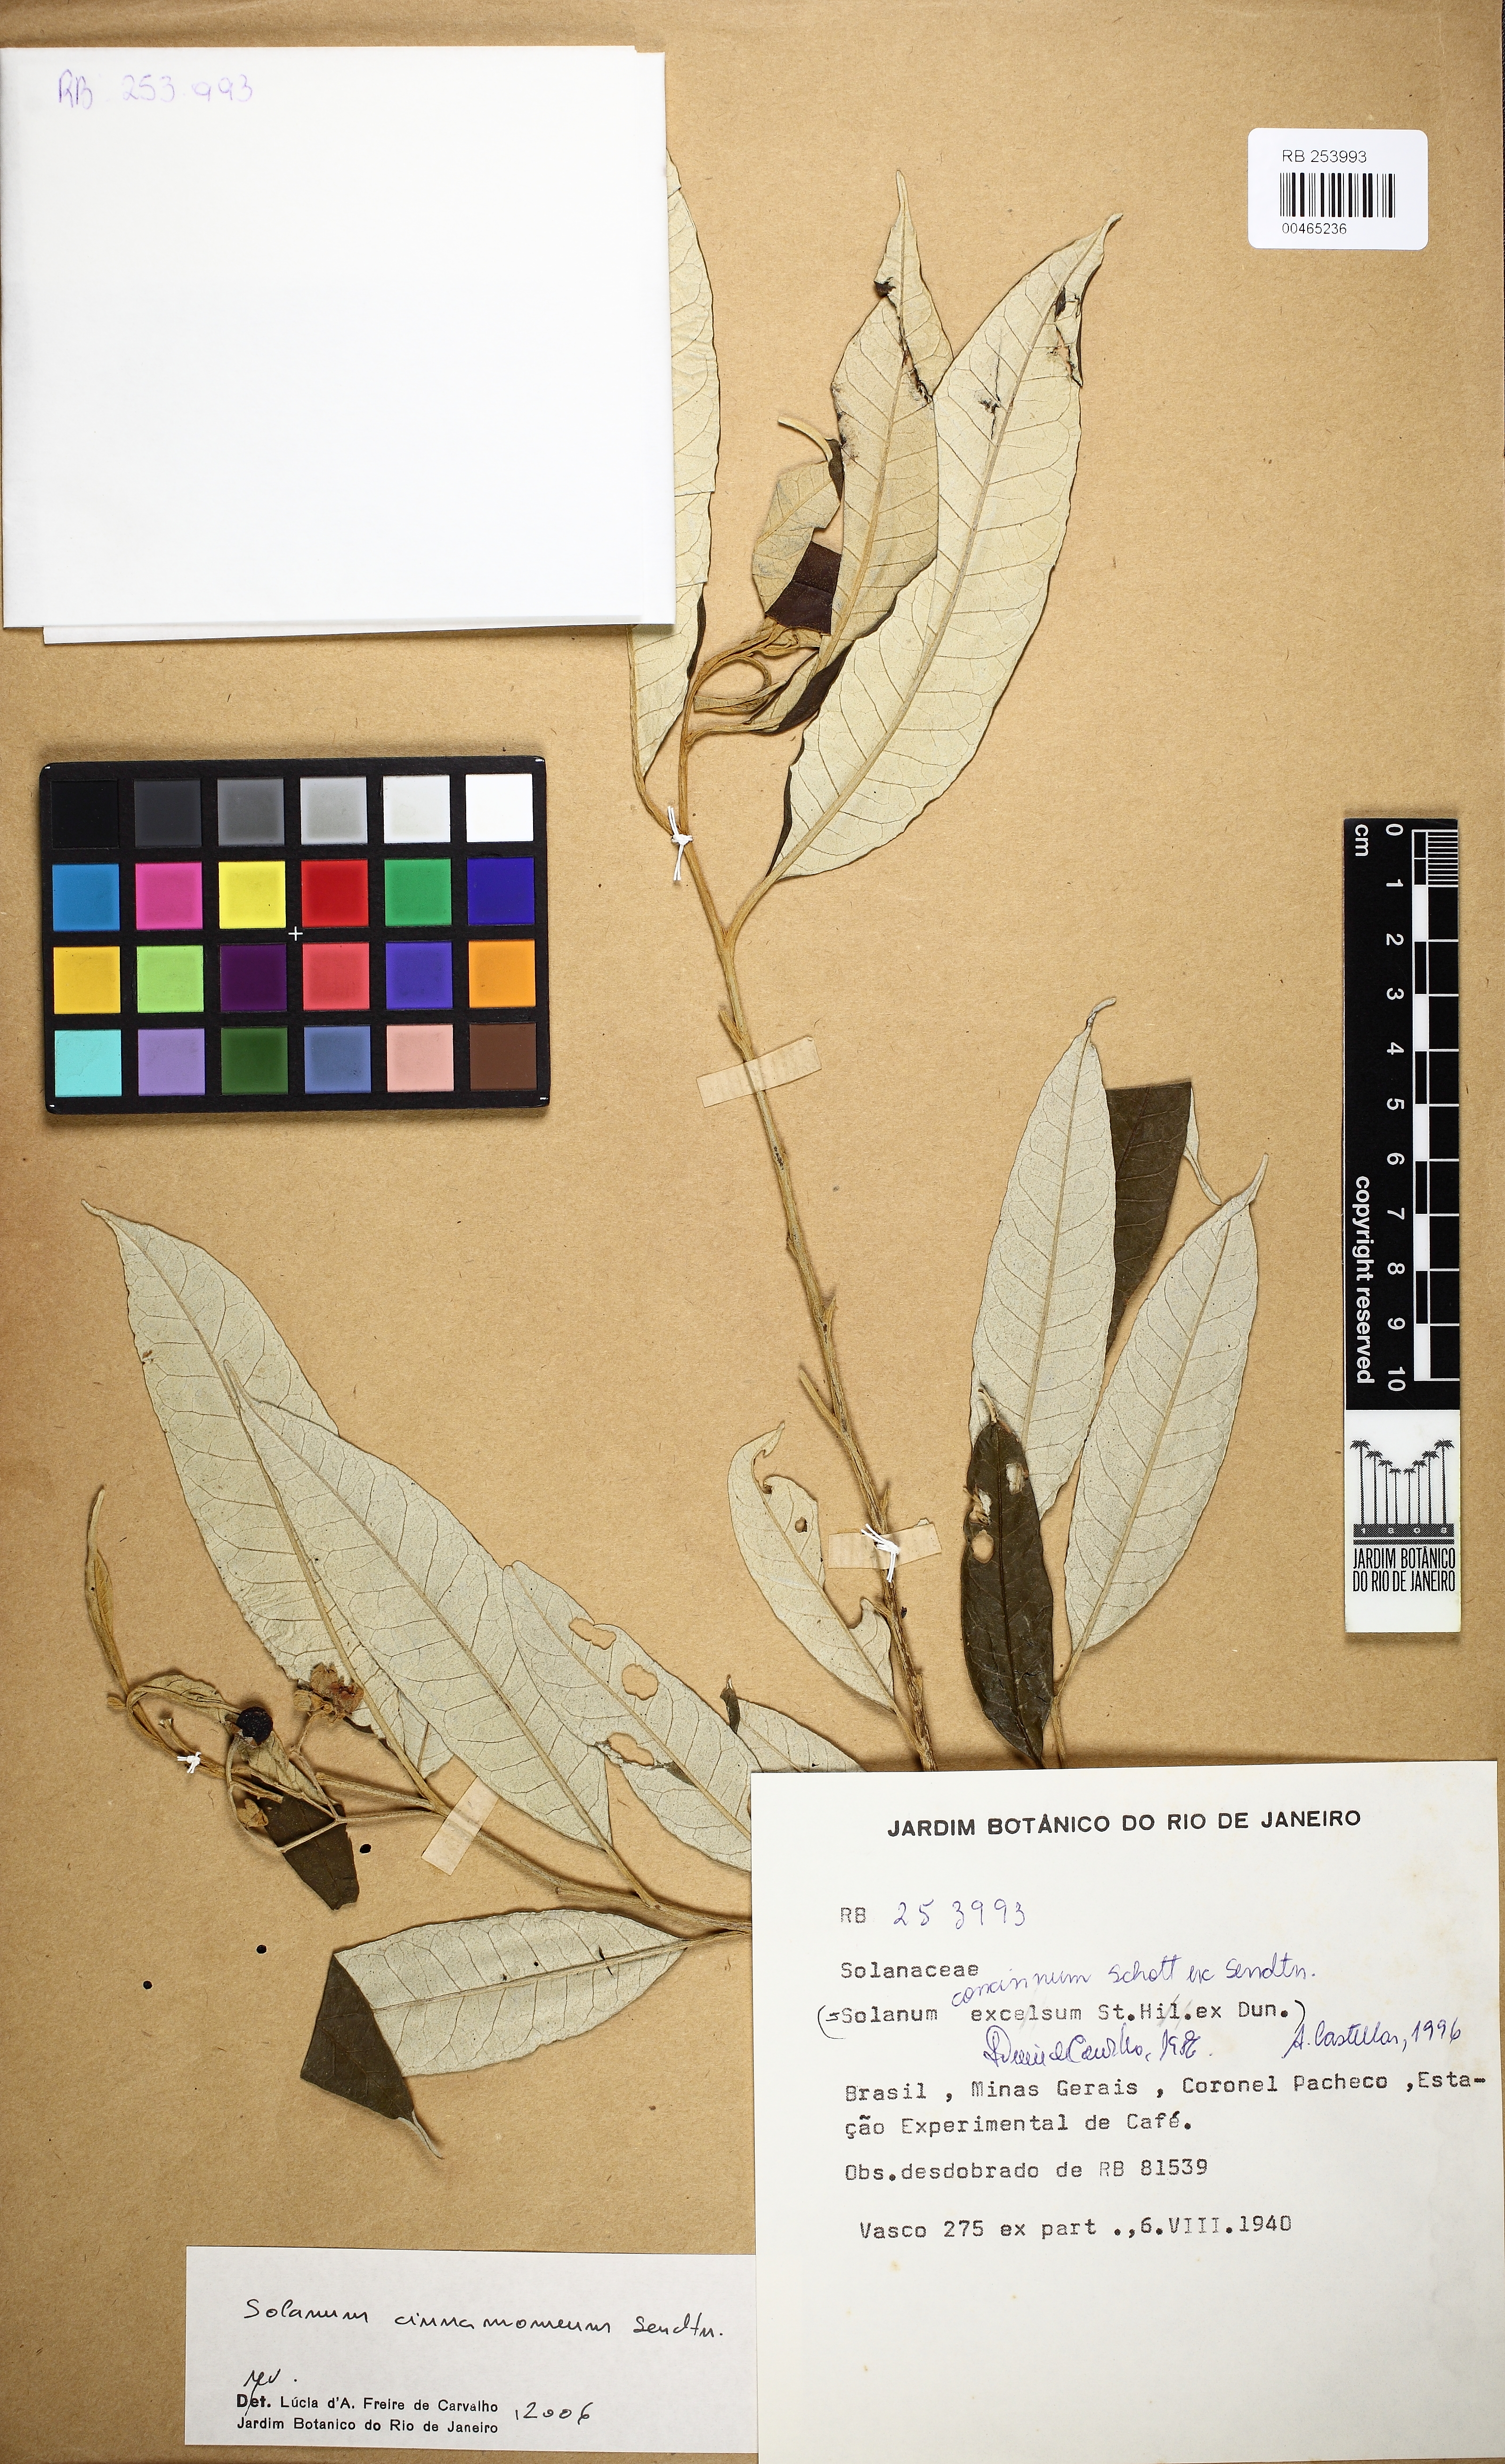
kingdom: Plantae
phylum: Tracheophyta
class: Magnoliopsida
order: Solanales
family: Solanaceae
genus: Solanum
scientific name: Solanum cinnamomeum
